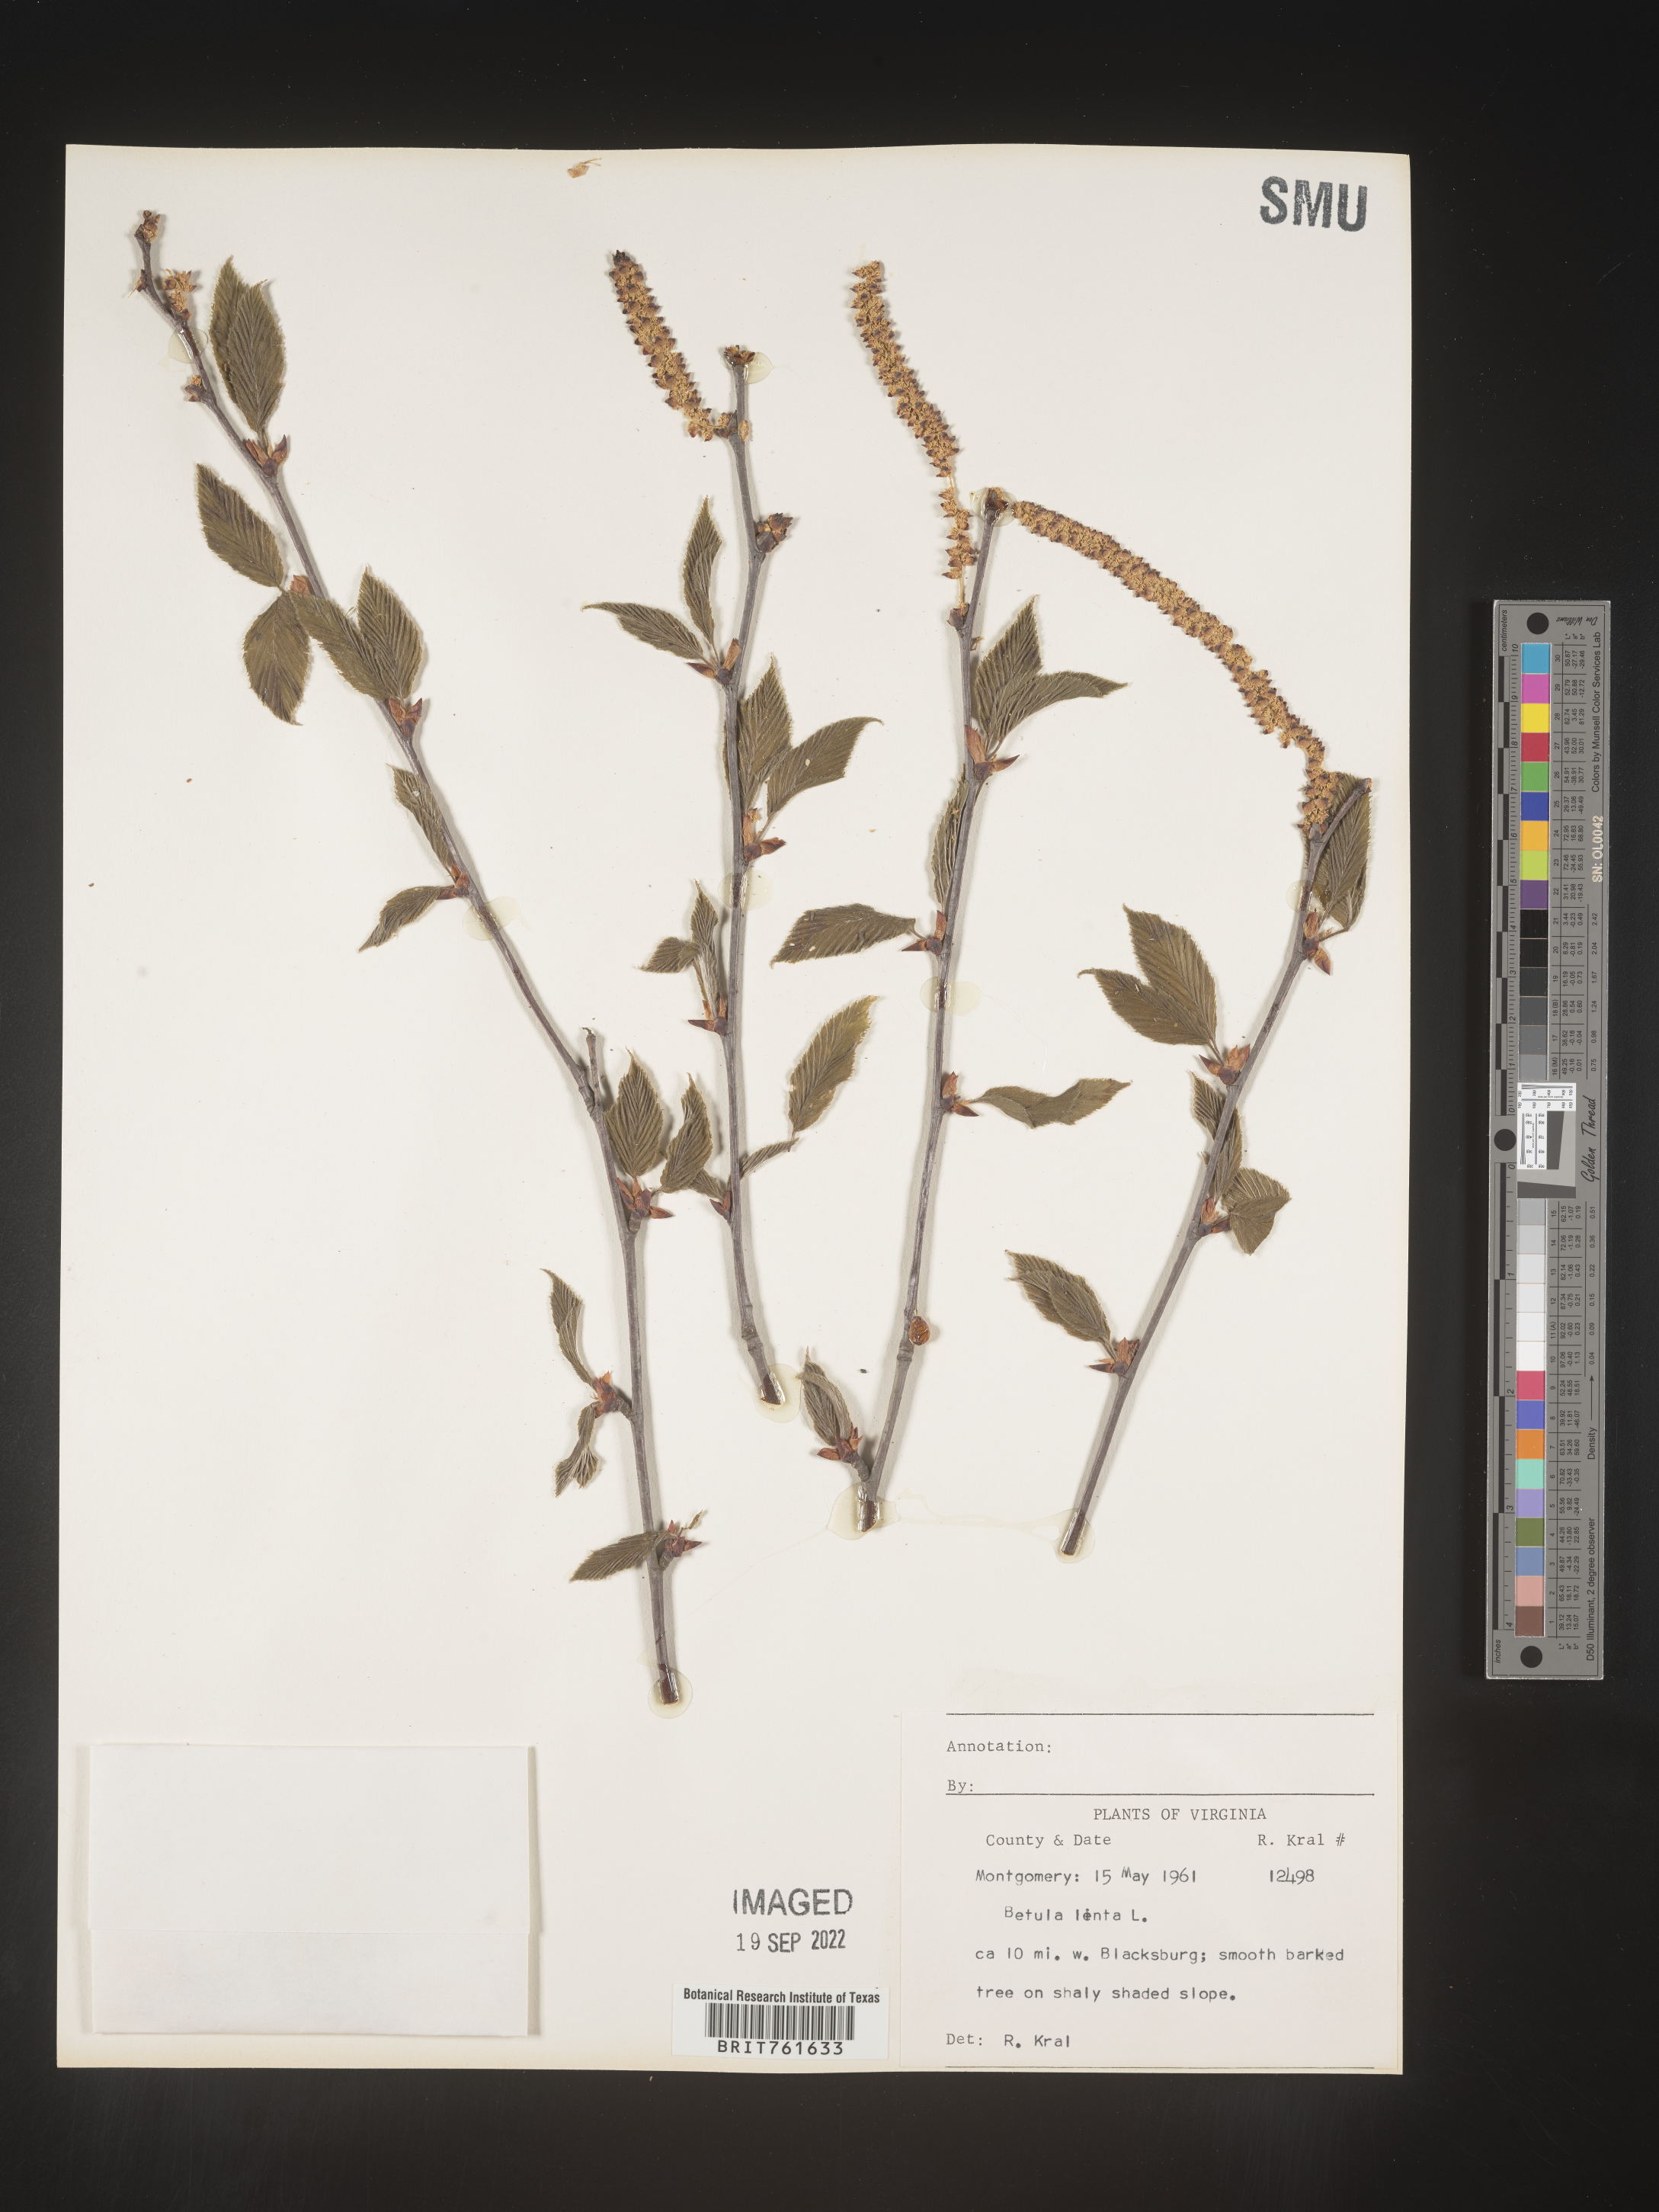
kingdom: Plantae
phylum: Tracheophyta
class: Magnoliopsida
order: Fagales
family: Betulaceae
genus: Betula
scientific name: Betula lenta
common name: Black birch
